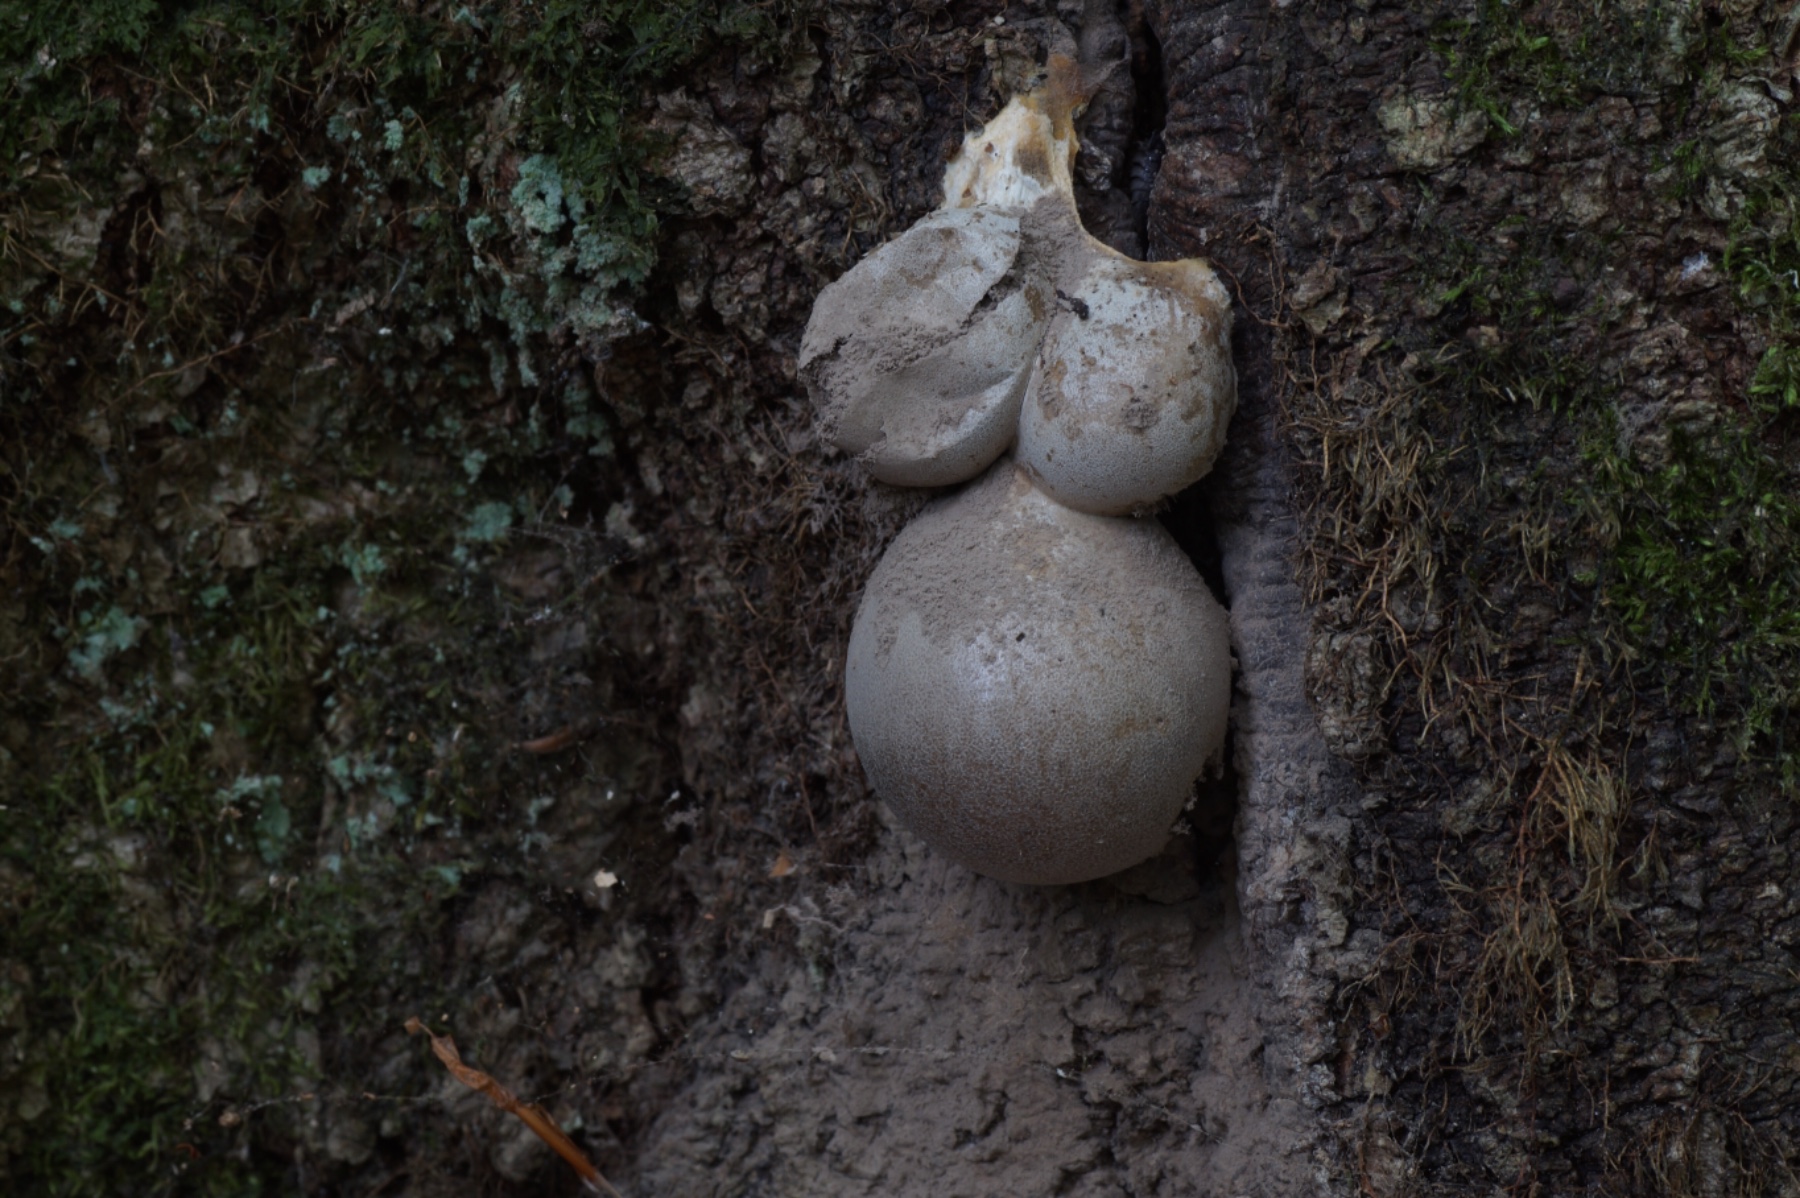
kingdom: Protozoa
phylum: Mycetozoa
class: Myxomycetes
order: Cribrariales
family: Tubiferaceae
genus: Lycogala
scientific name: Lycogala flavofuscum
